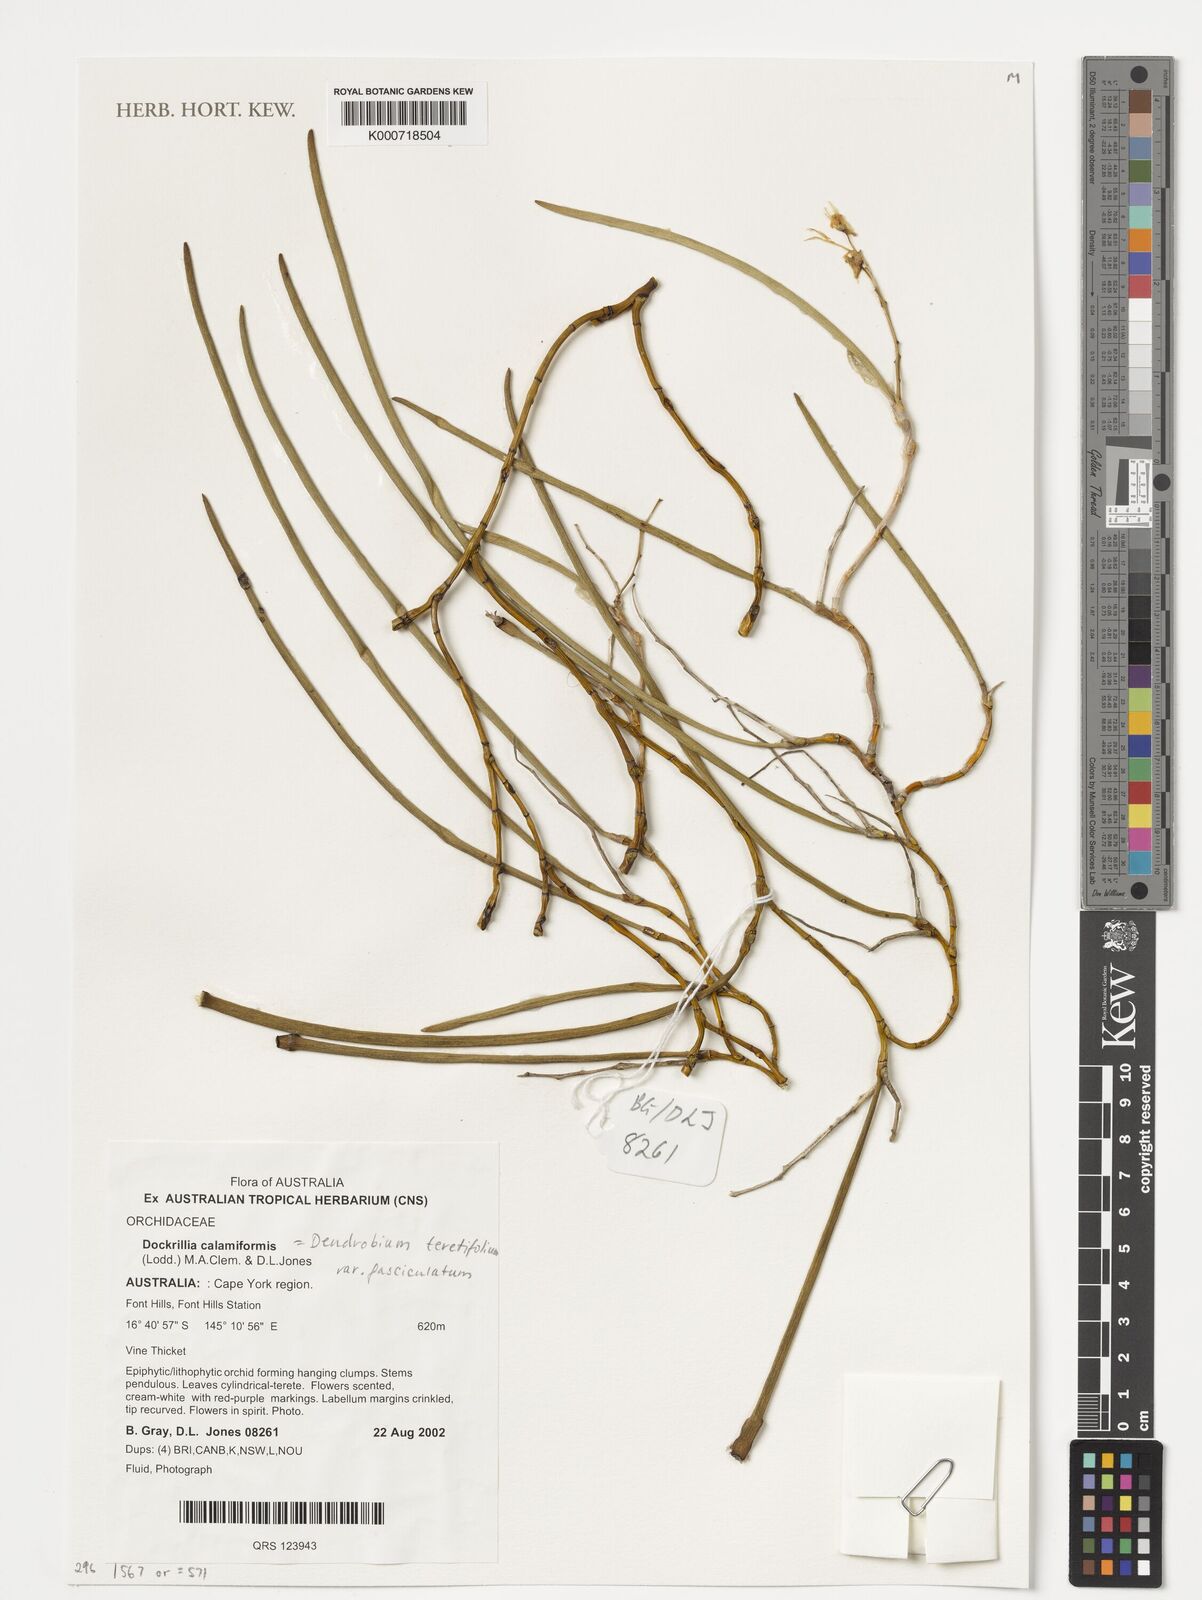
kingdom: Plantae
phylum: Tracheophyta
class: Liliopsida
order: Asparagales
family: Orchidaceae
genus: Dendrobium
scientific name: Dendrobium teretifolium
